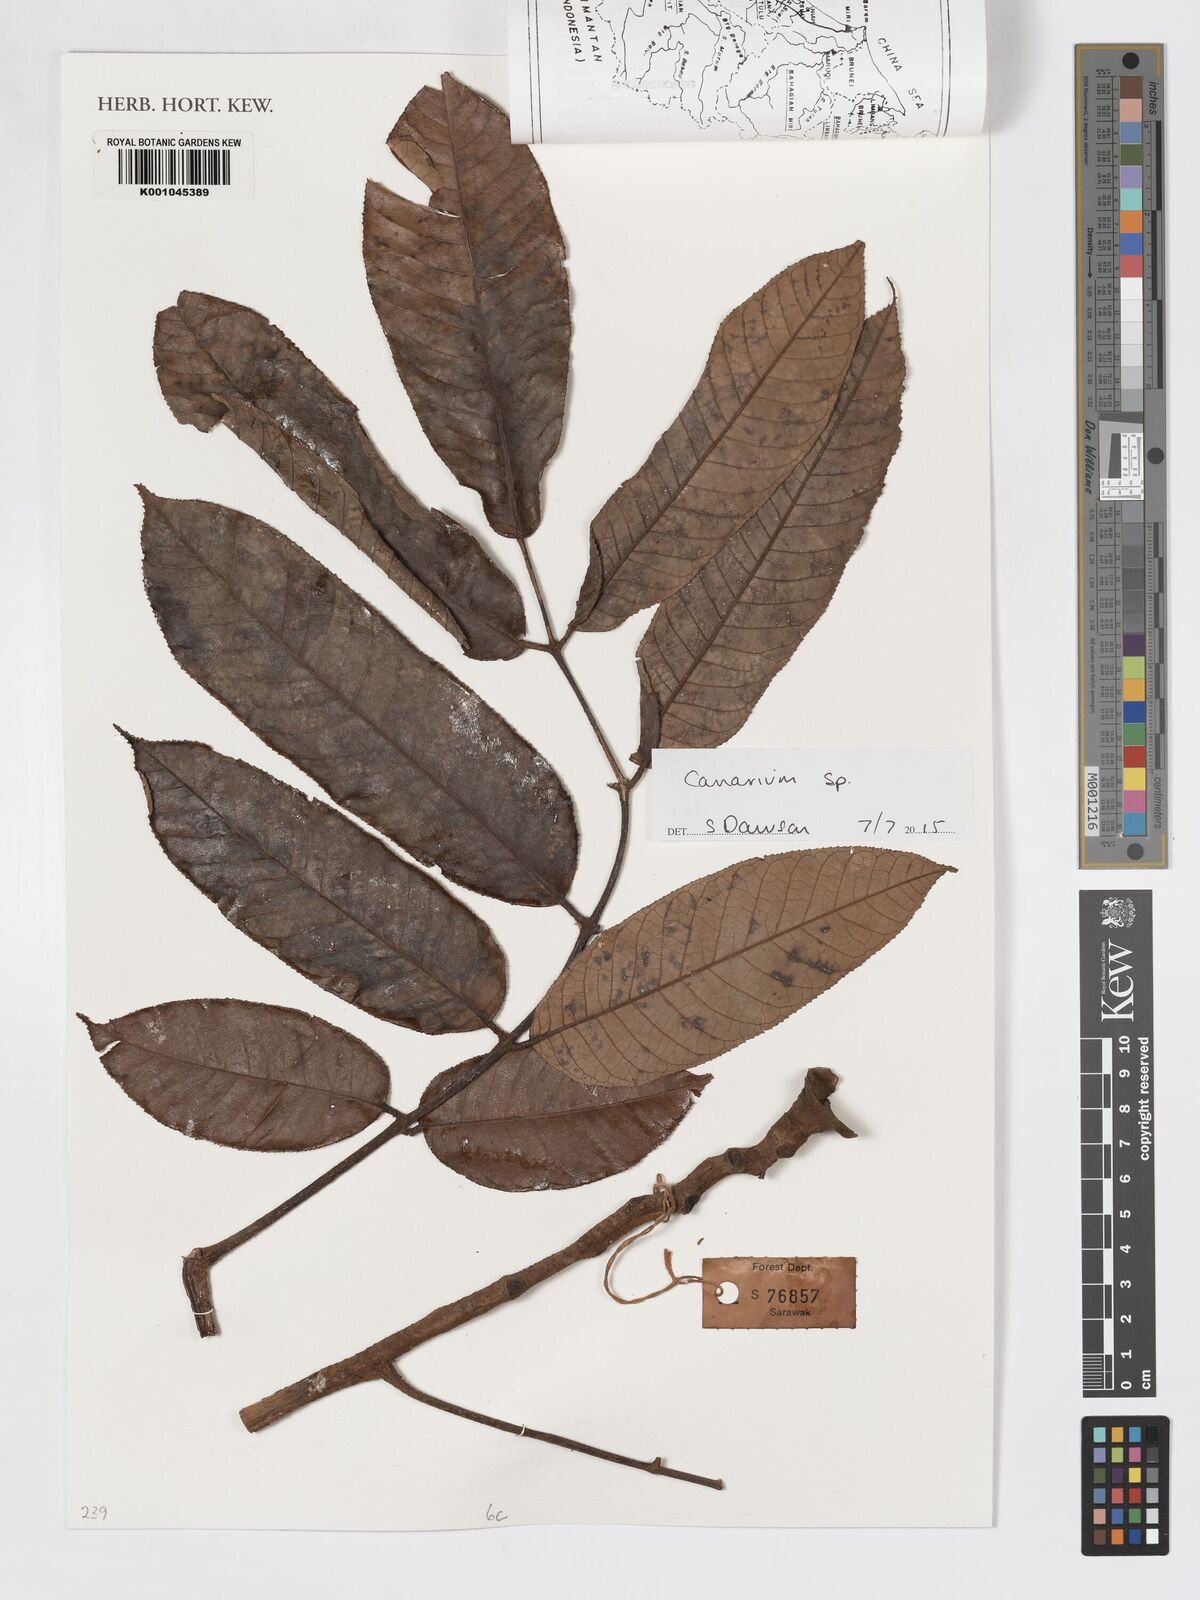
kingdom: Plantae
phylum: Tracheophyta
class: Magnoliopsida
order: Sapindales
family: Burseraceae
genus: Canarium
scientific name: Canarium
